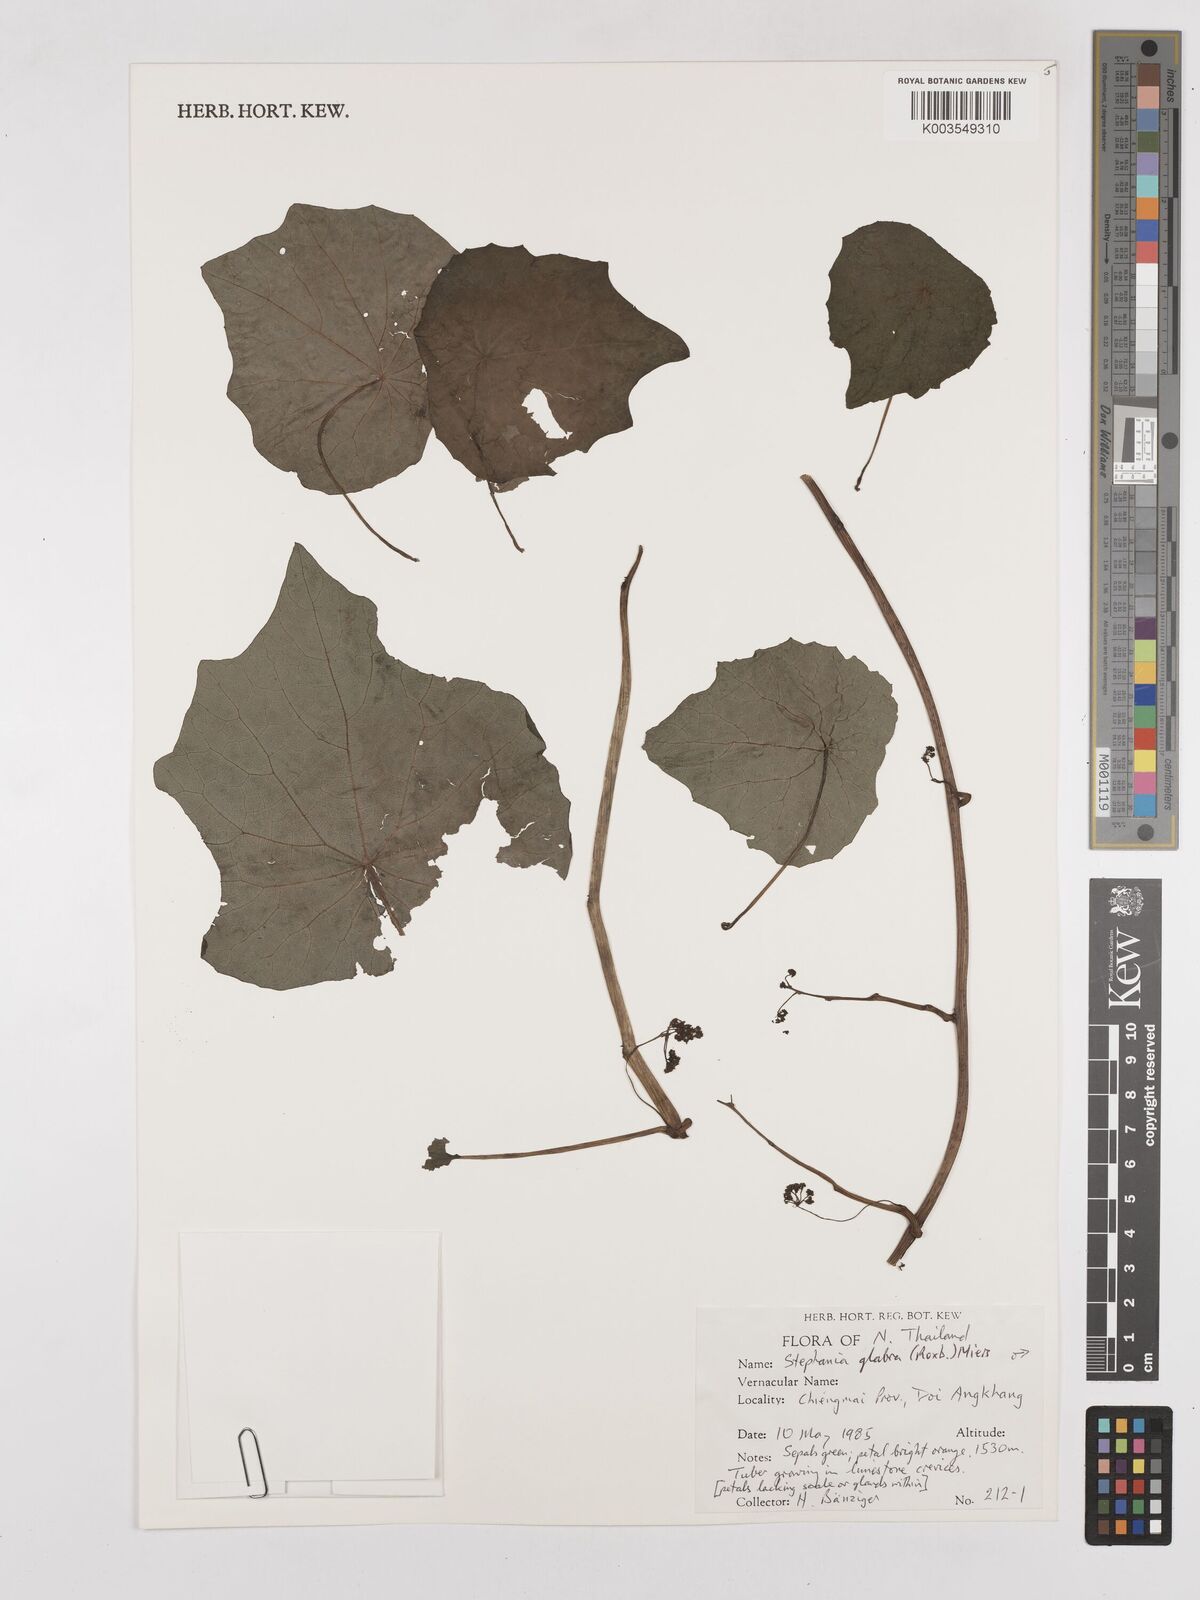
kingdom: Plantae
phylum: Tracheophyta
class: Magnoliopsida
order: Ranunculales
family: Menispermaceae
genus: Stephania
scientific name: Stephania rotunda
